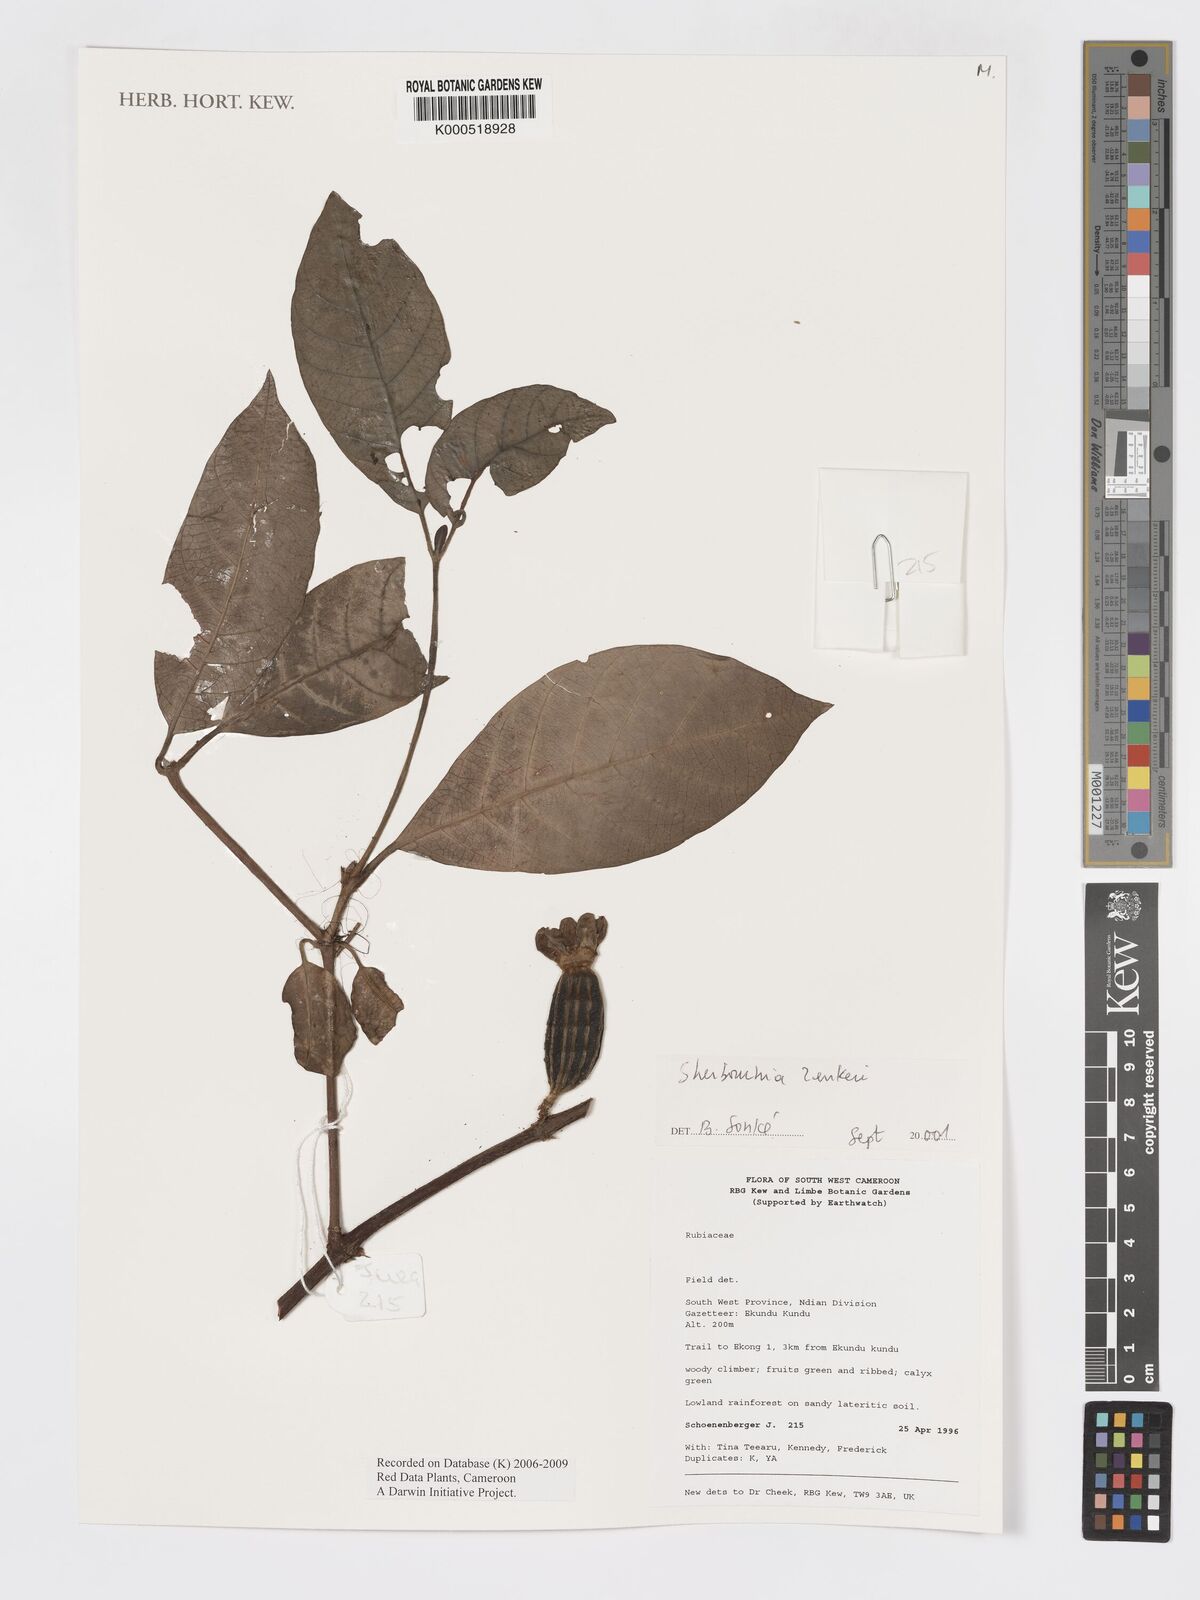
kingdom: Plantae
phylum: Tracheophyta
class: Magnoliopsida
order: Gentianales
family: Rubiaceae
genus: Sherbournia
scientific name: Sherbournia zenkeri
